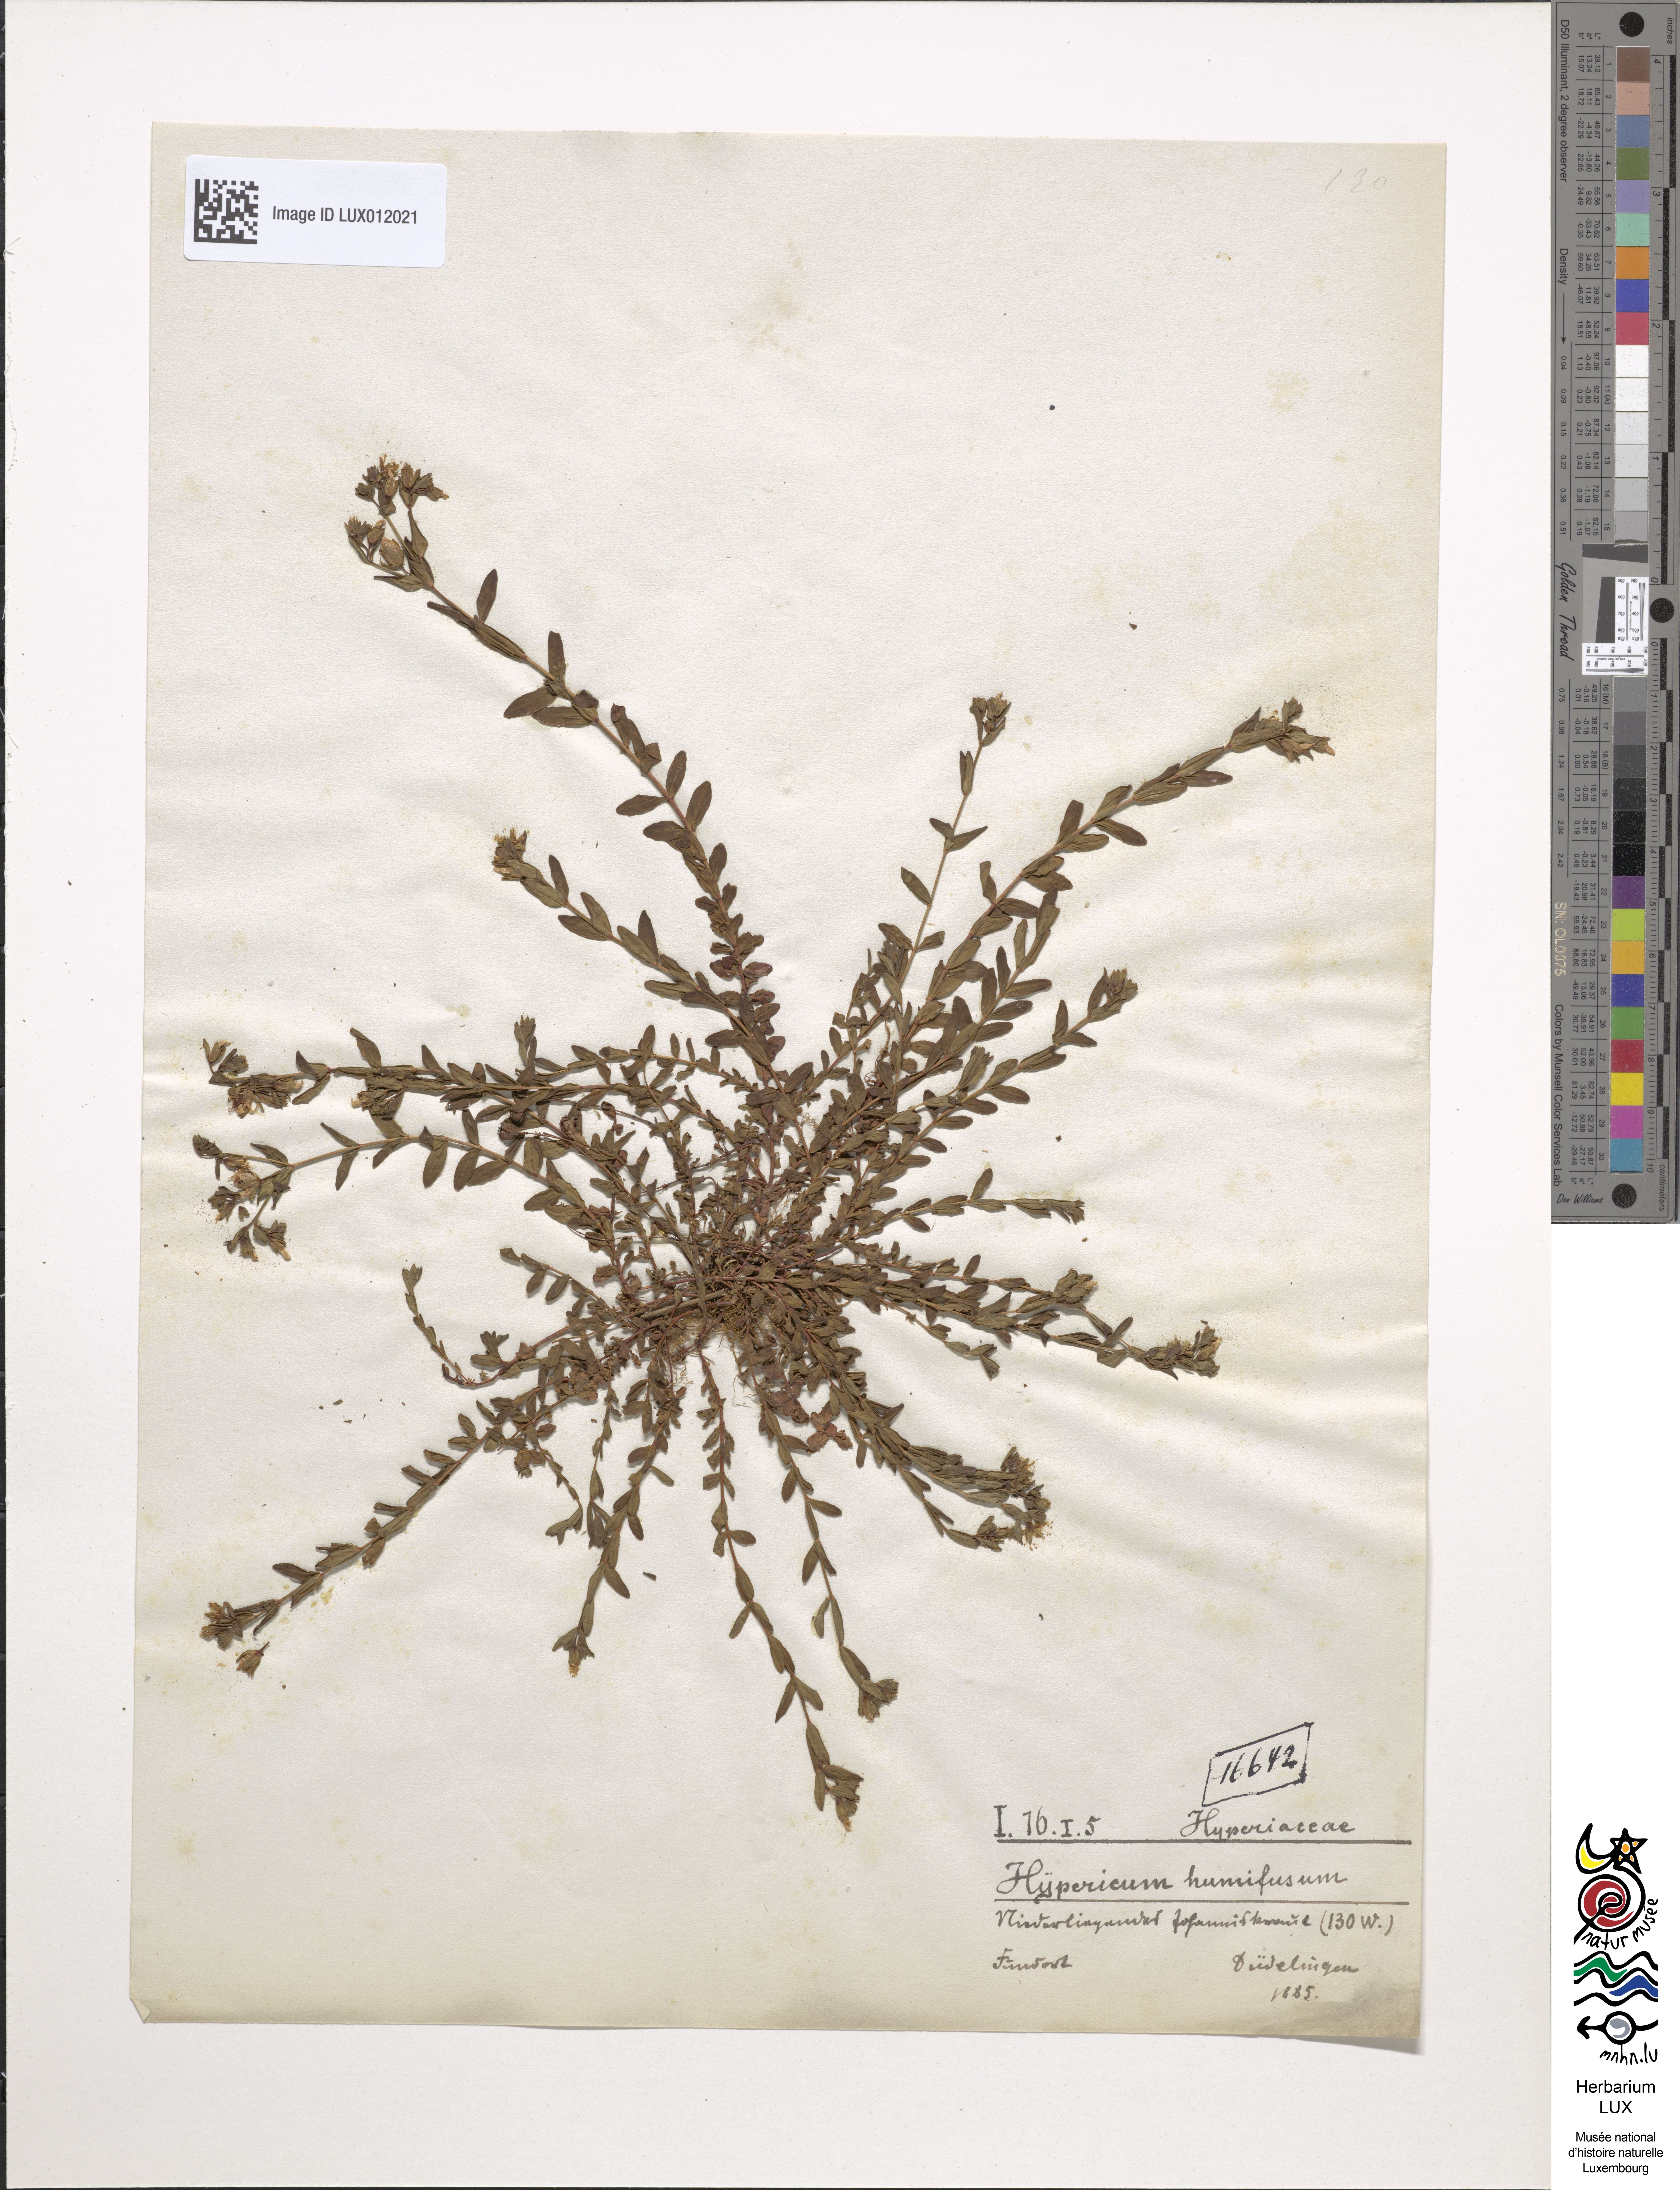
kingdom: Plantae
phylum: Tracheophyta
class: Magnoliopsida
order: Malpighiales
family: Hypericaceae
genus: Hypericum
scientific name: Hypericum humifusum
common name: Trailing st. john's-wort
